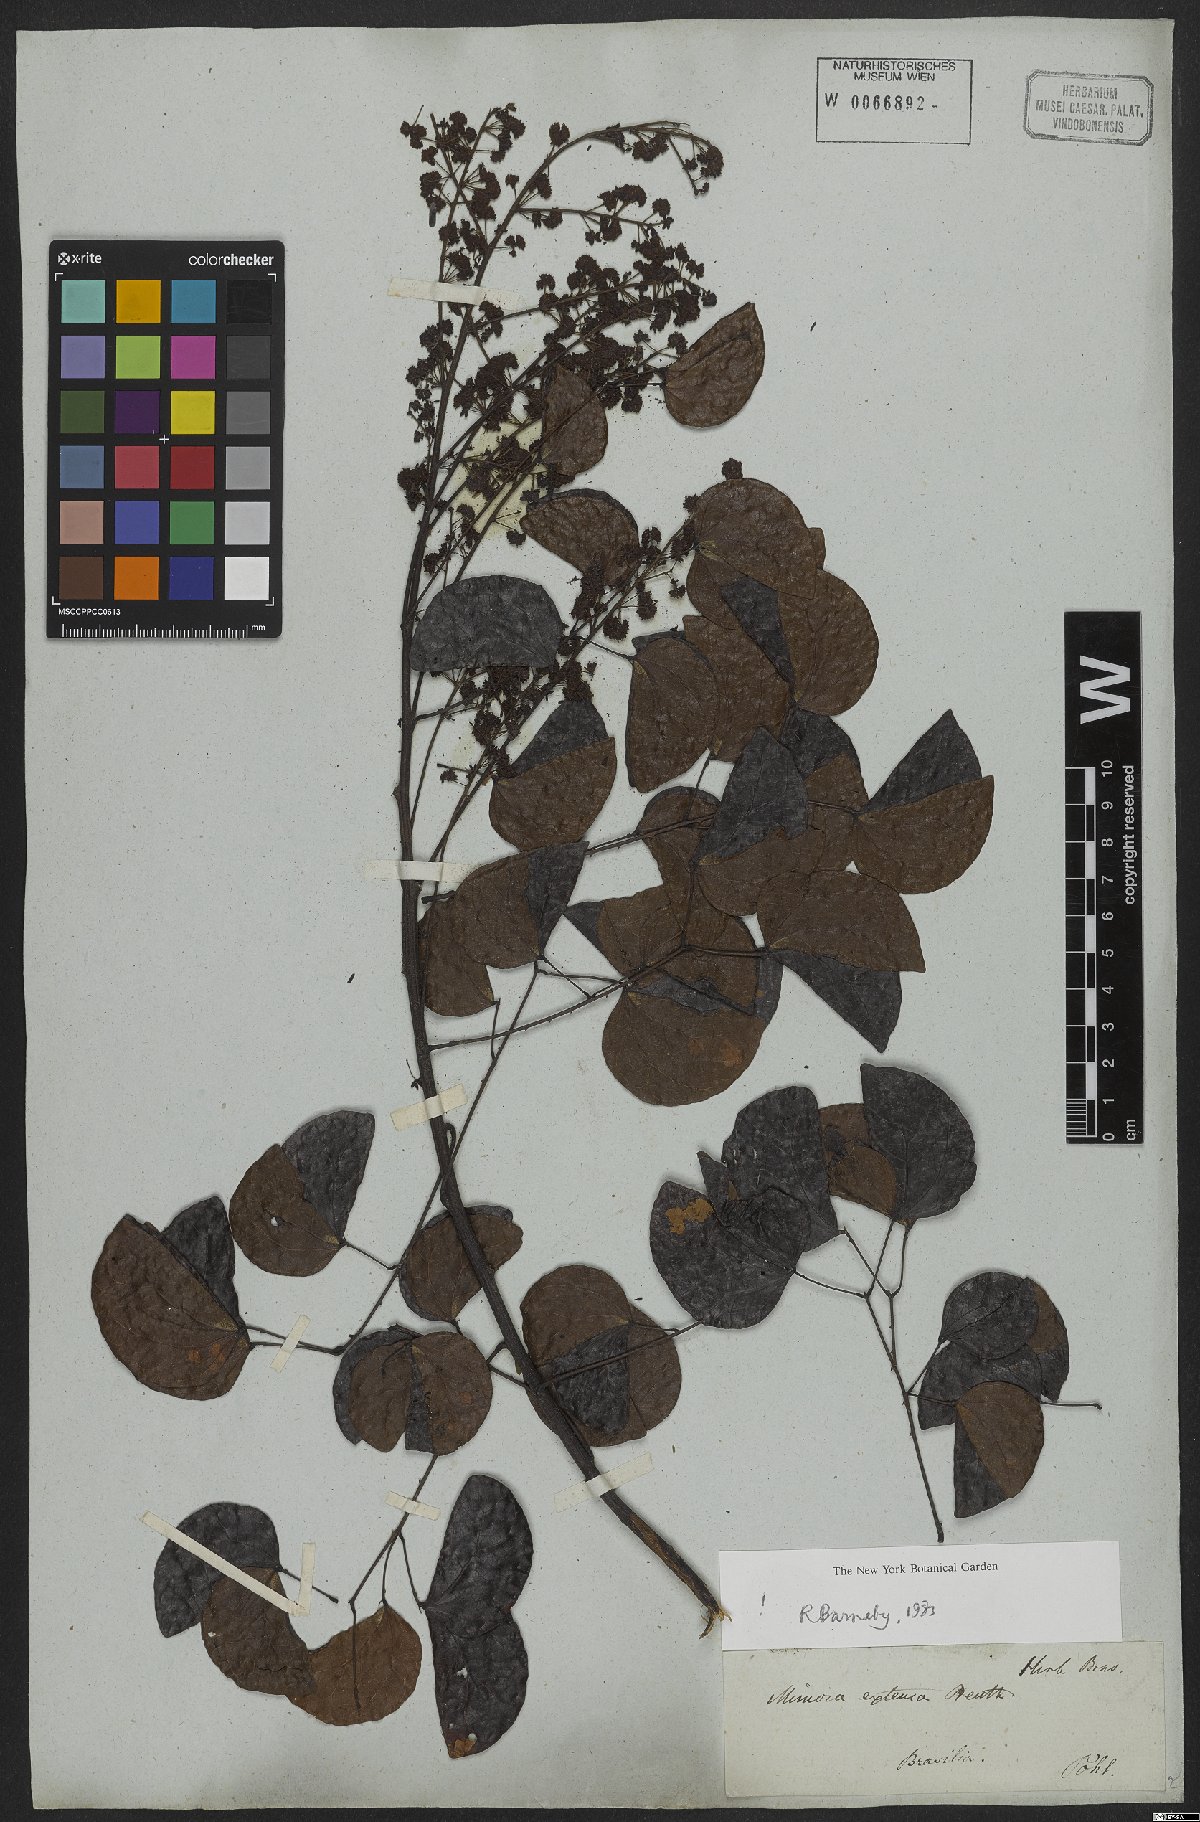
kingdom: Plantae
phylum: Tracheophyta
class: Magnoliopsida
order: Fabales
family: Fabaceae
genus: Mimosa
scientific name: Mimosa extensa
